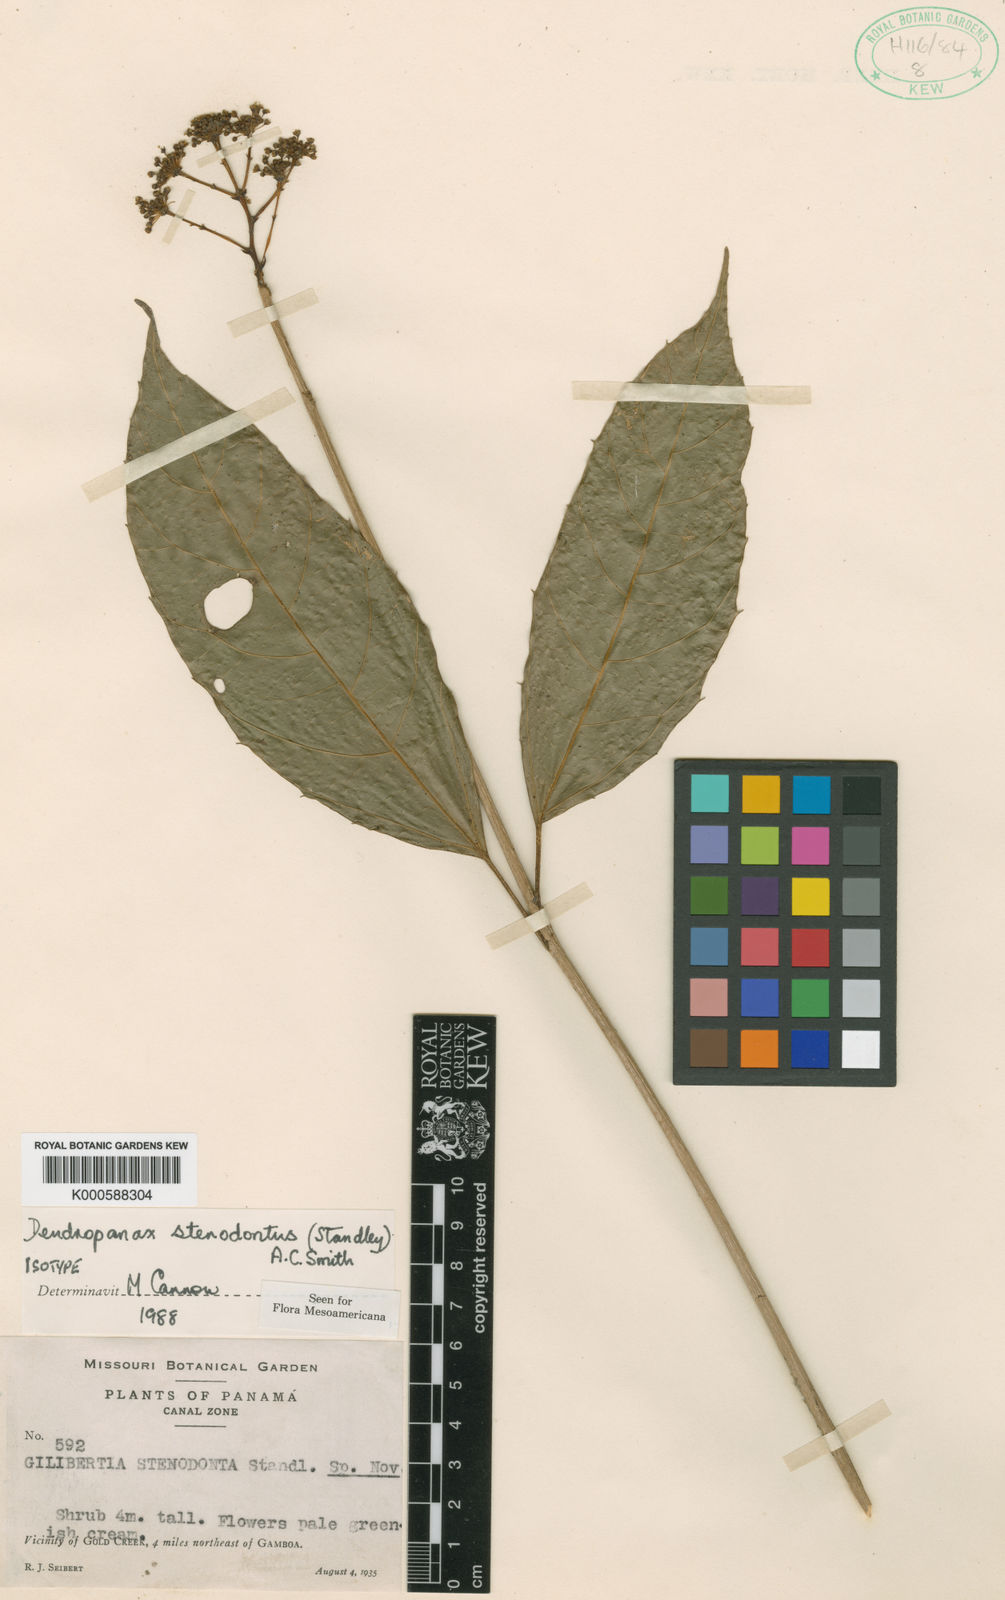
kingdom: Plantae
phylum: Tracheophyta
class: Magnoliopsida
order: Apiales
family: Araliaceae
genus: Dendropanax
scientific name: Dendropanax alaris
